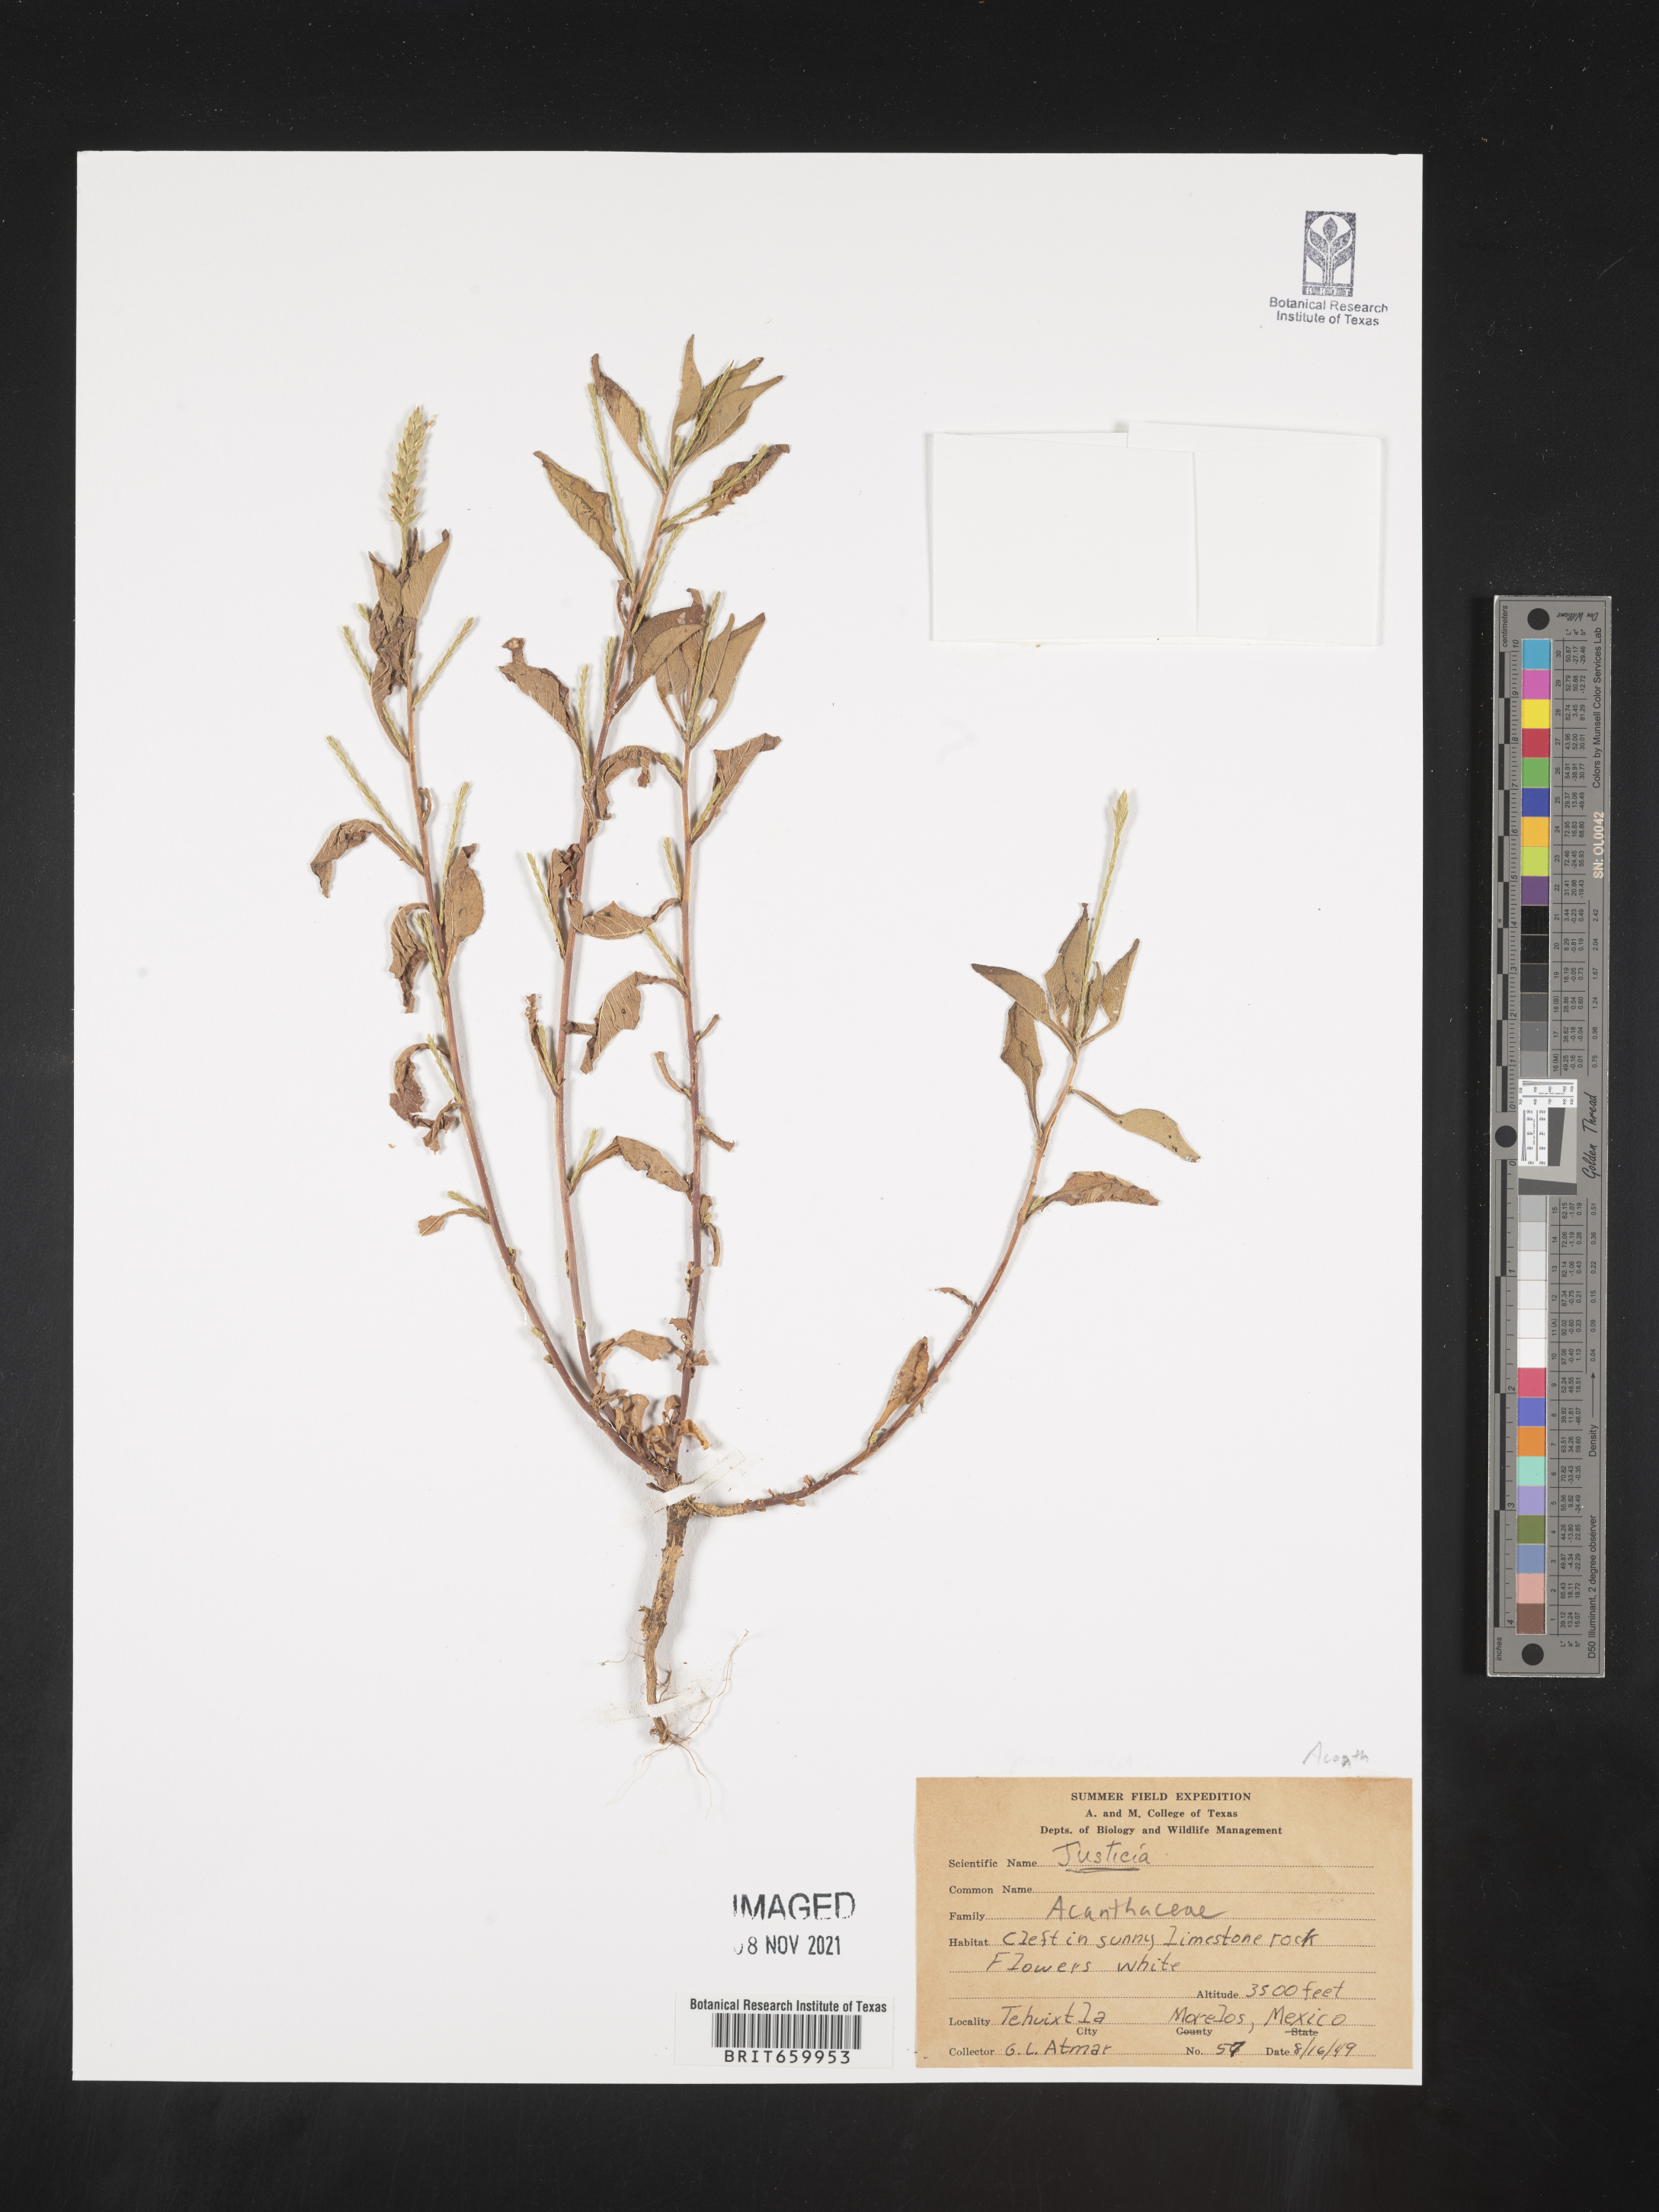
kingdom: Plantae
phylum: Tracheophyta
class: Magnoliopsida
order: Lamiales
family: Acanthaceae
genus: Justicia
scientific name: Justicia
